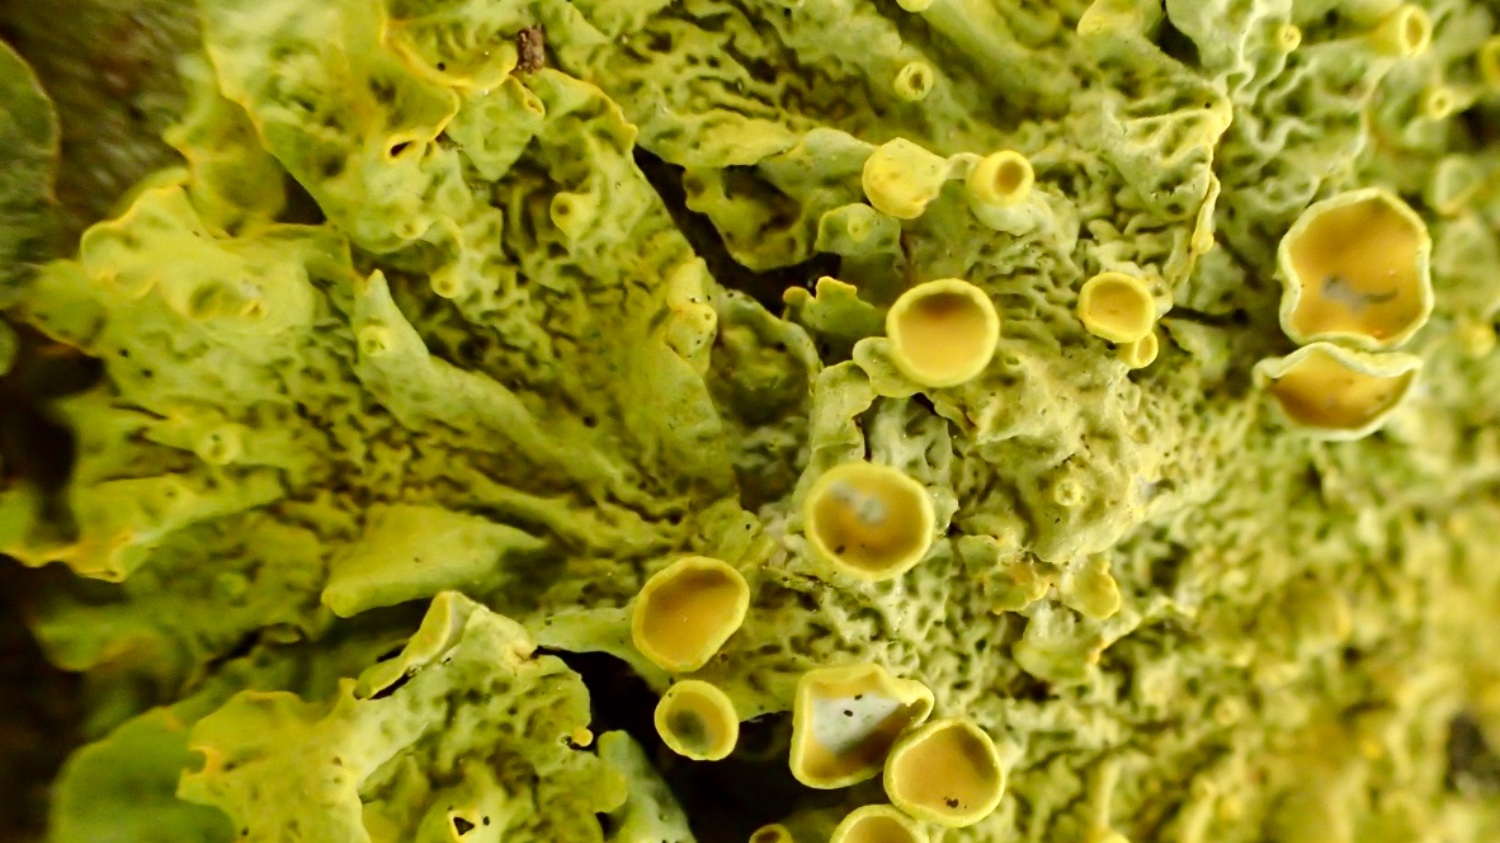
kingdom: Fungi
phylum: Ascomycota
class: Lecanoromycetes
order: Teloschistales
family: Teloschistaceae
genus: Xanthoria
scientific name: Xanthoria parietina
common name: almindelig væggelav
